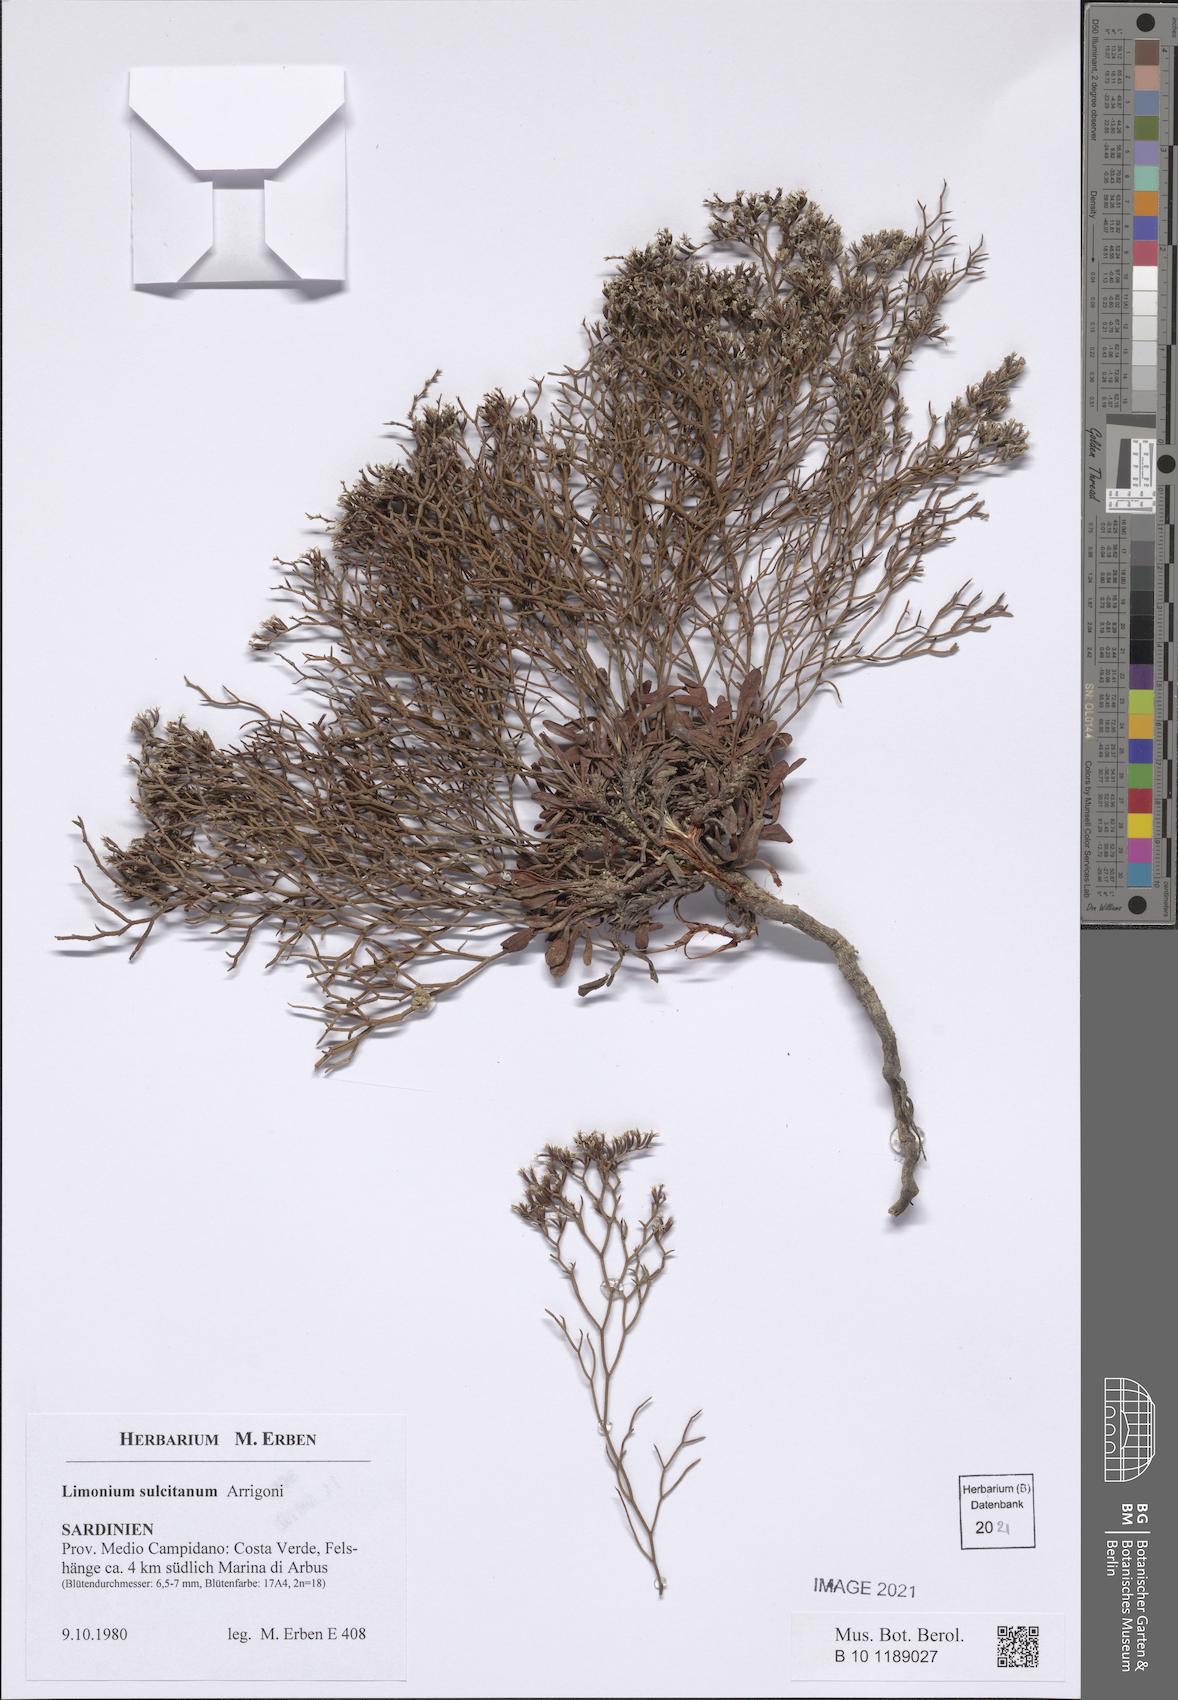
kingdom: Plantae
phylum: Tracheophyta
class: Magnoliopsida
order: Caryophyllales
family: Plumbaginaceae
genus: Limonium
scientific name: Limonium sulcitanum
